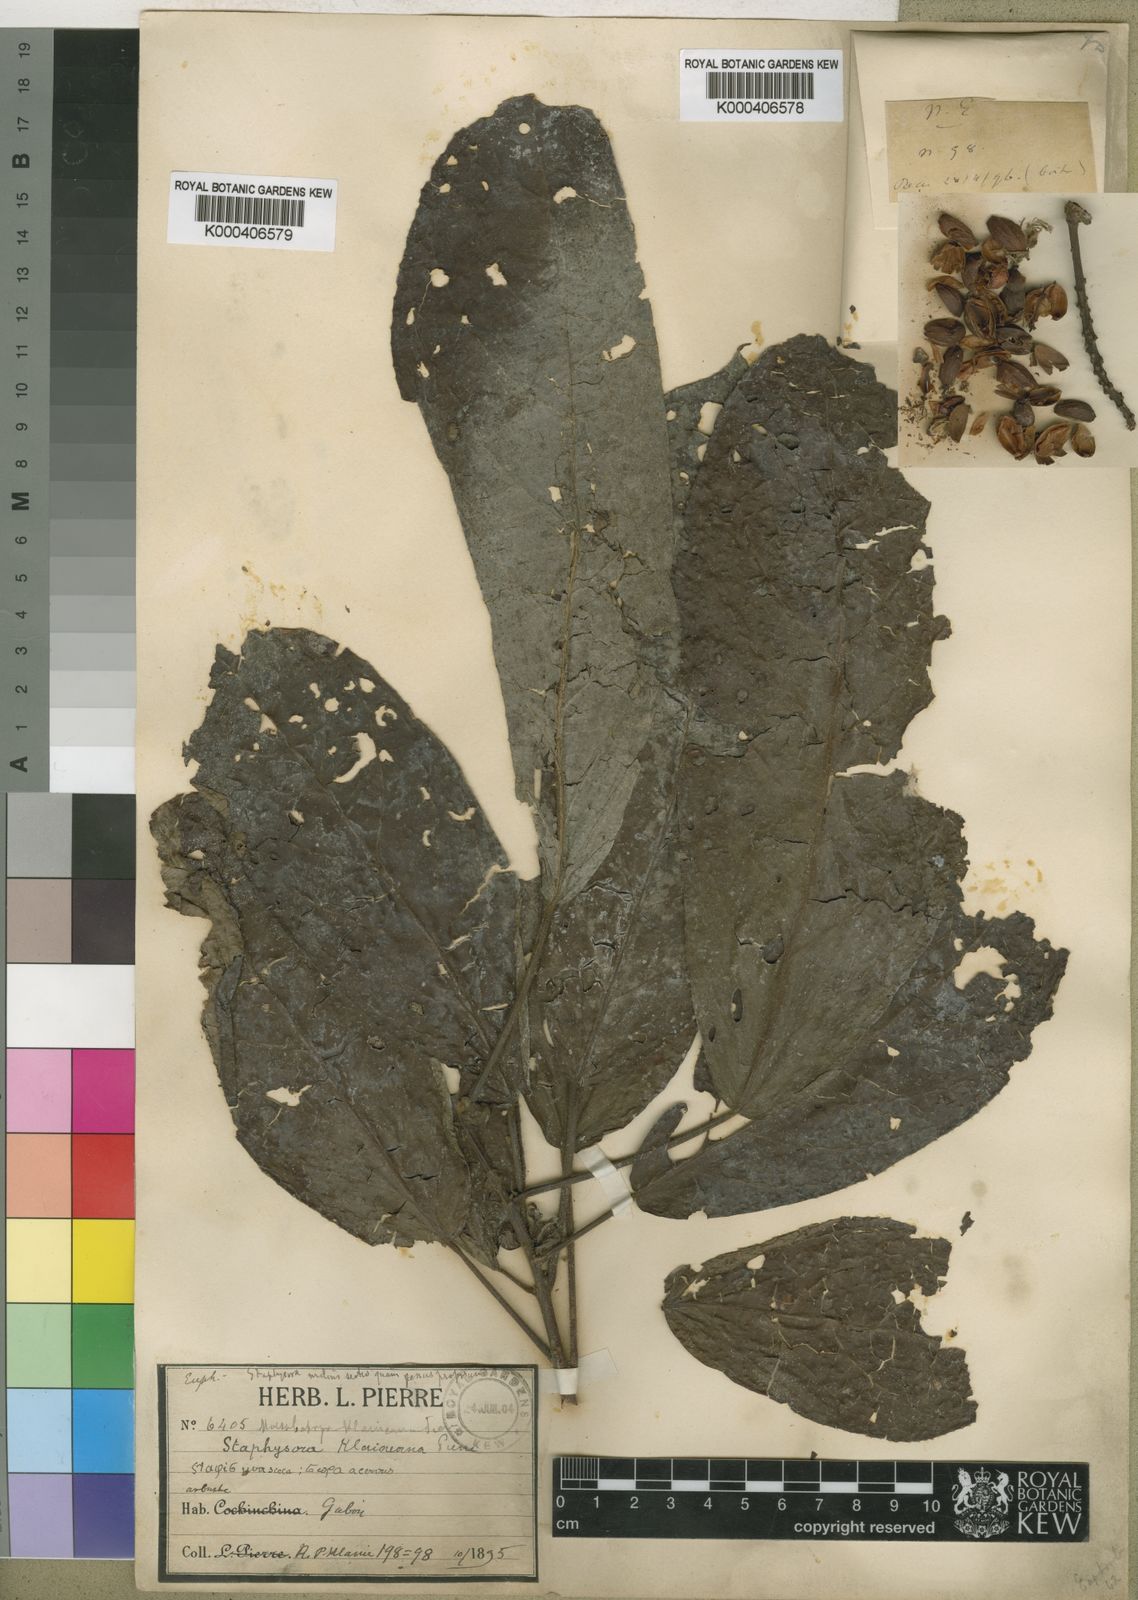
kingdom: Plantae
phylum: Tracheophyta
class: Magnoliopsida
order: Malpighiales
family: Phyllanthaceae
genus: Maesobotrya
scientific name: Maesobotrya
